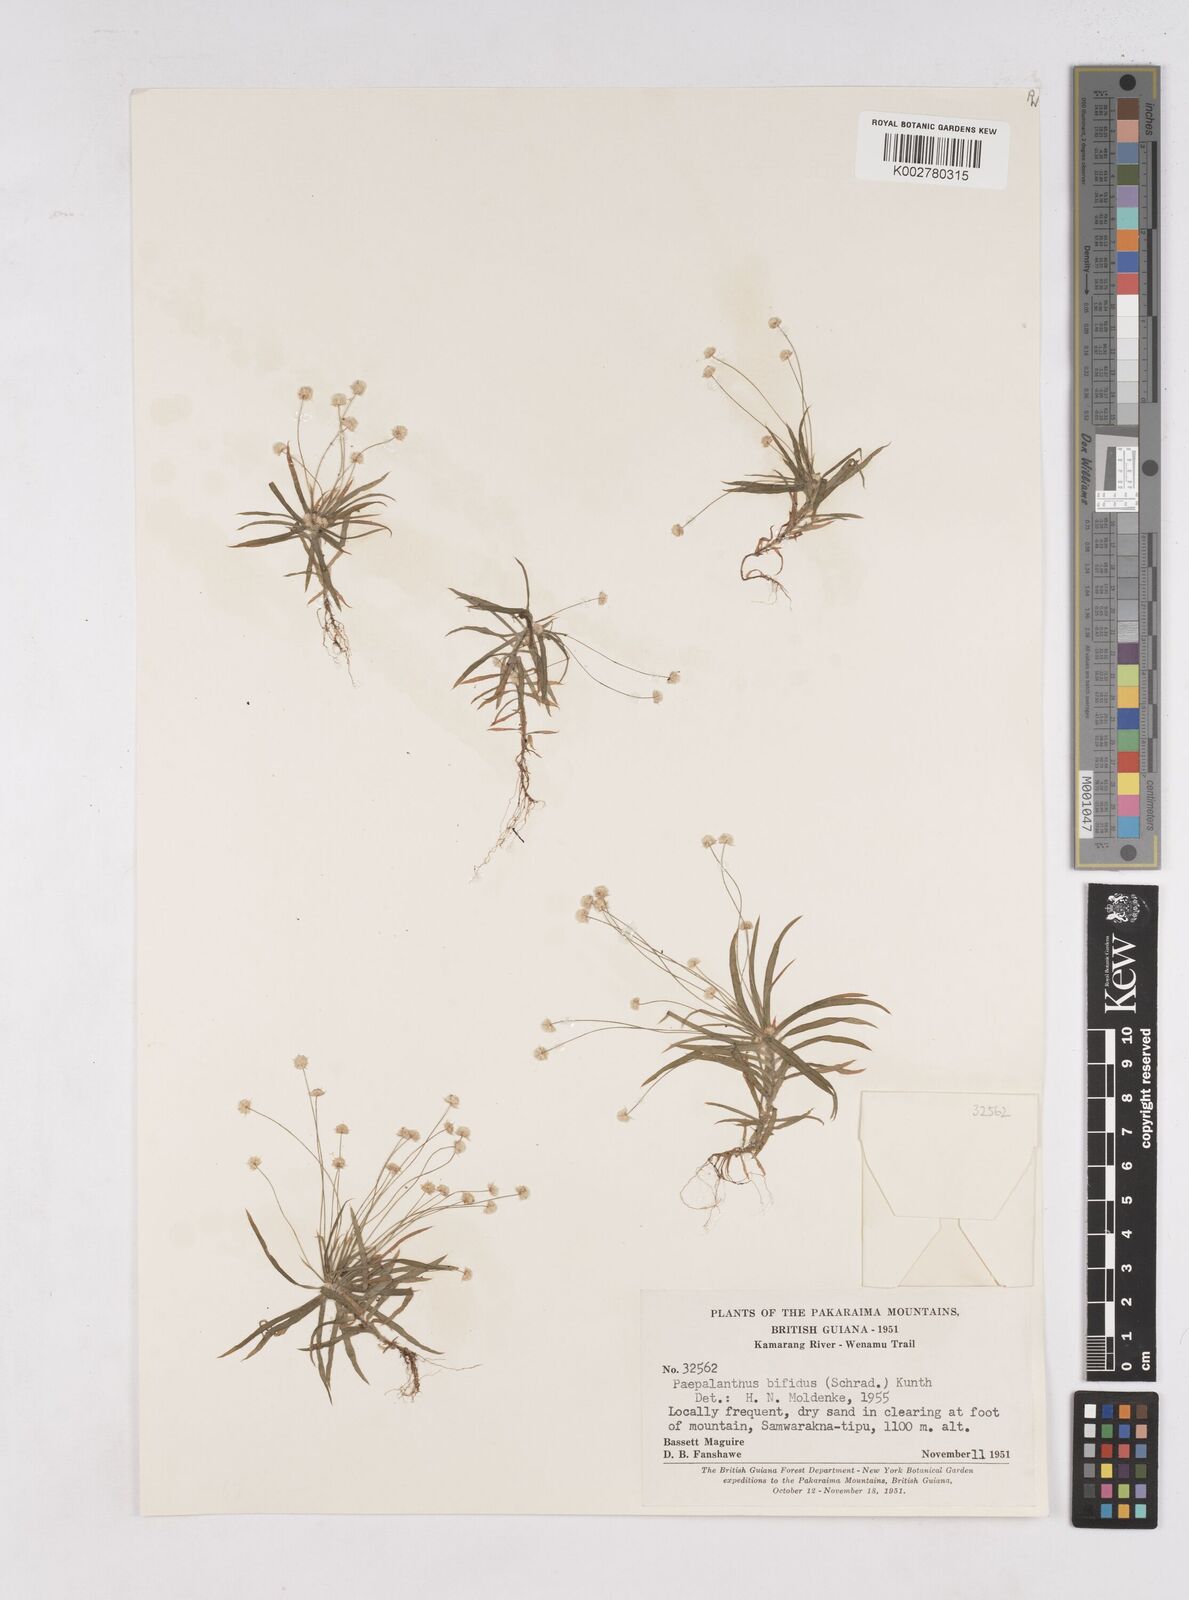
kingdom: Plantae
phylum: Tracheophyta
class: Liliopsida
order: Poales
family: Eriocaulaceae
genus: Paepalanthus
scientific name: Paepalanthus bifidus
